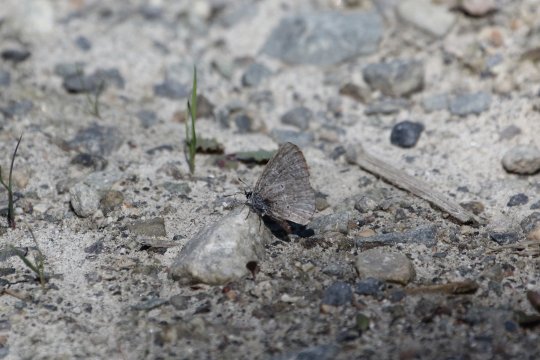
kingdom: Animalia
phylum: Arthropoda
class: Insecta
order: Lepidoptera
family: Lycaenidae
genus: Celastrina
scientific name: Celastrina ladon
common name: Echo Azure
